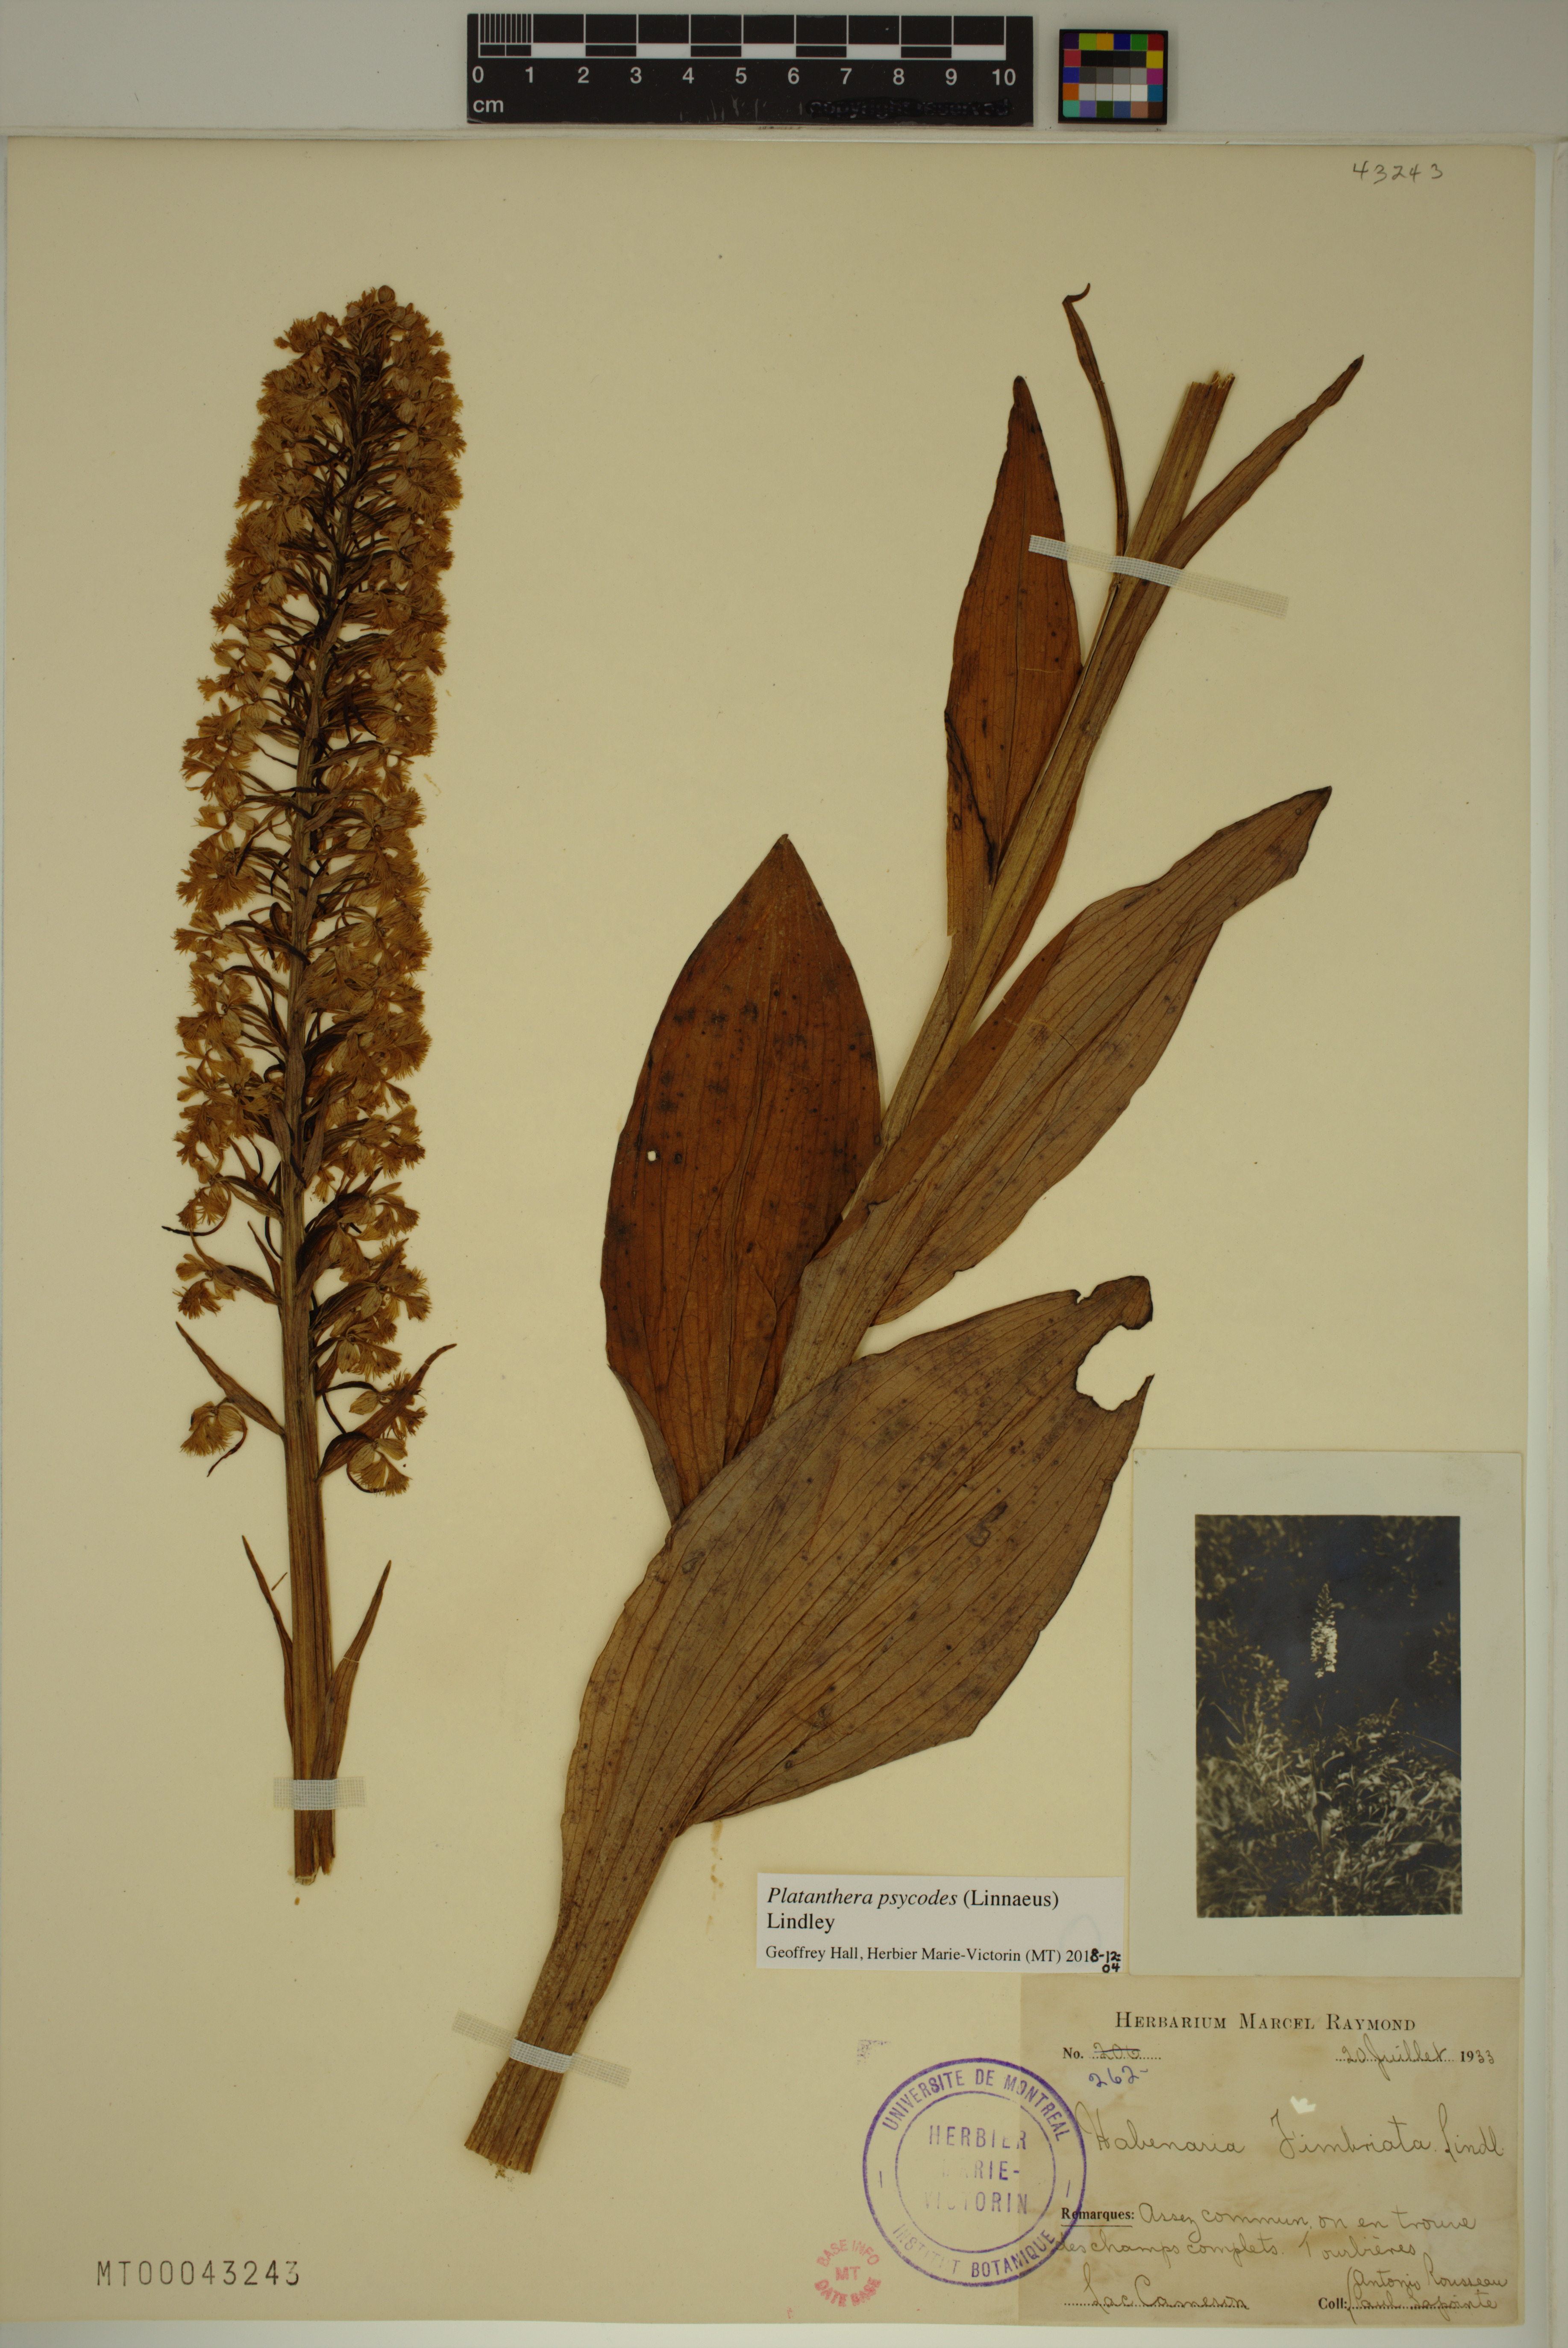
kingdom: Plantae
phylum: Tracheophyta
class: Liliopsida
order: Asparagales
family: Orchidaceae
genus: Platanthera
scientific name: Platanthera psycodes
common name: Lesser purple fringed orchid
